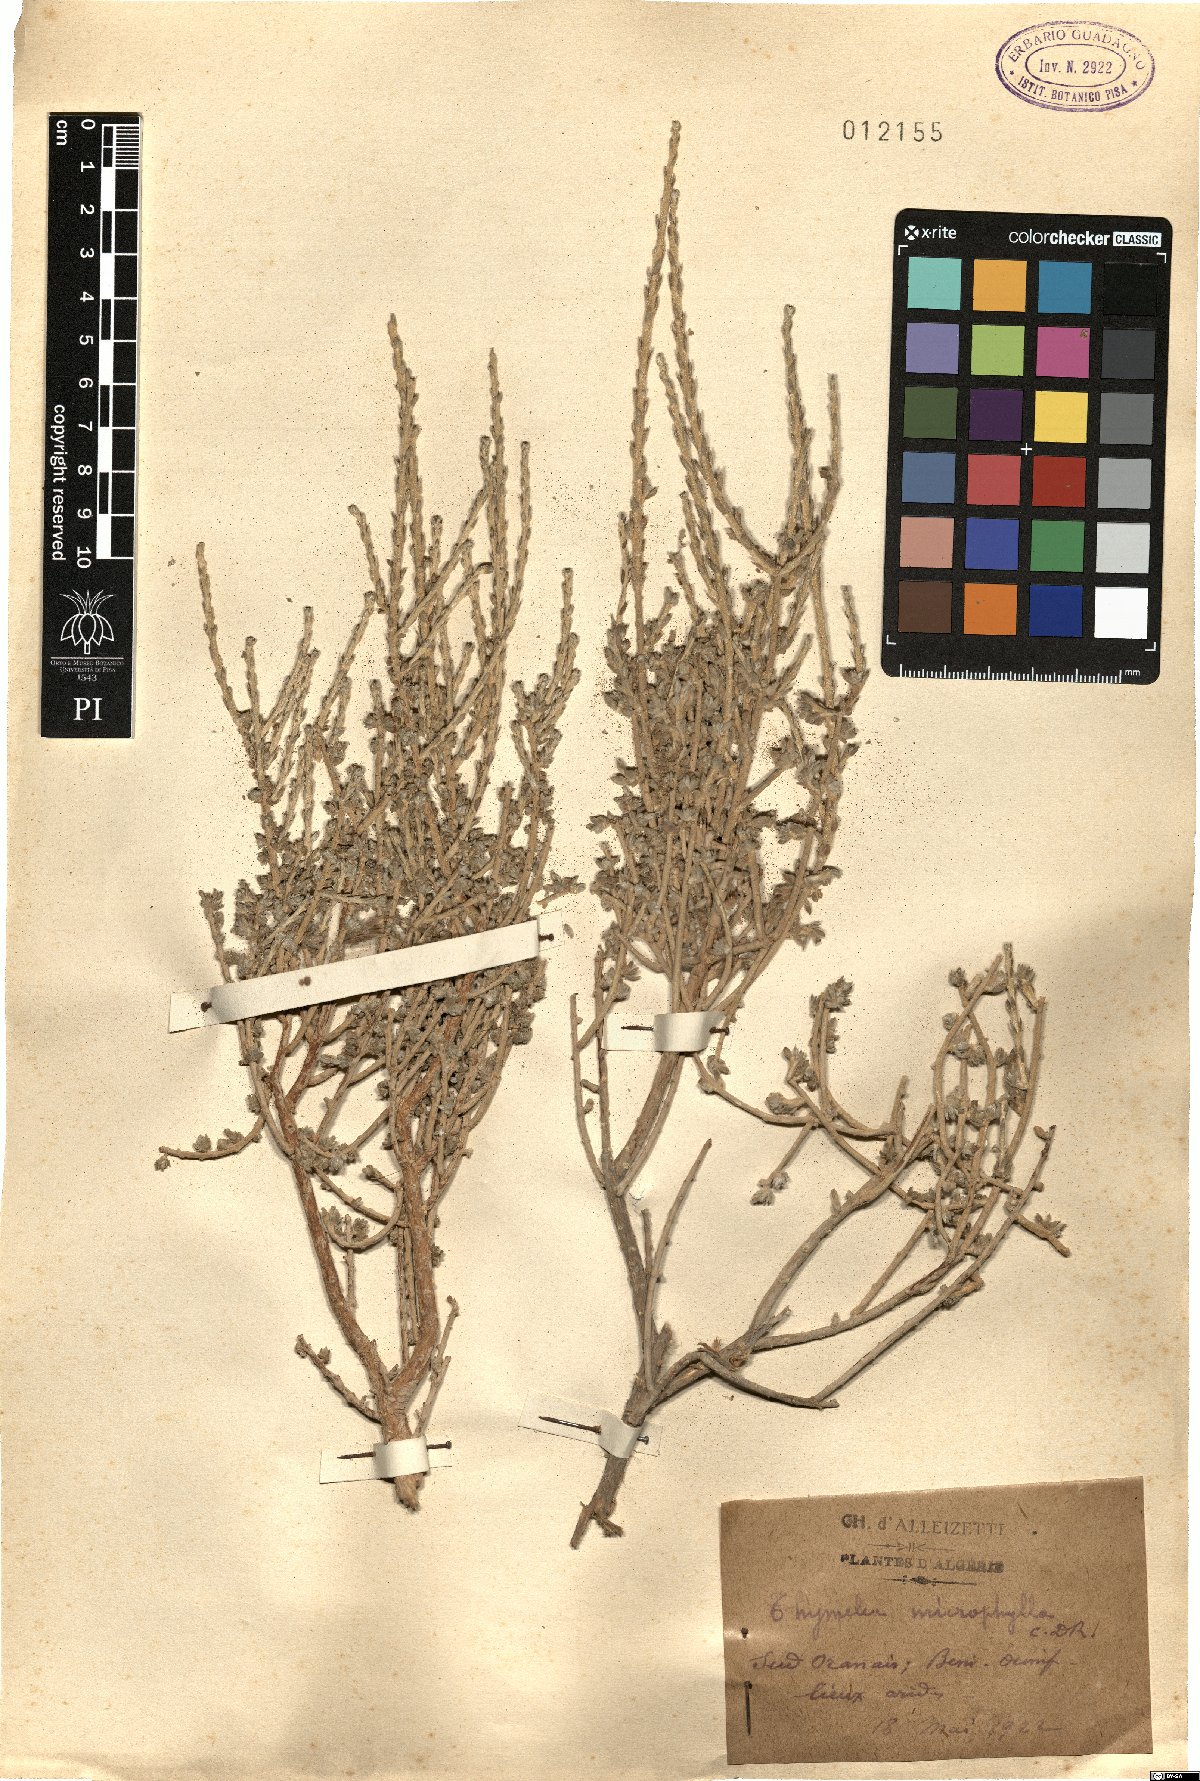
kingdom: Plantae
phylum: Tracheophyta
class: Magnoliopsida
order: Malvales
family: Thymelaeaceae
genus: Thymelaea
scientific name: Thymelaea microphylla
